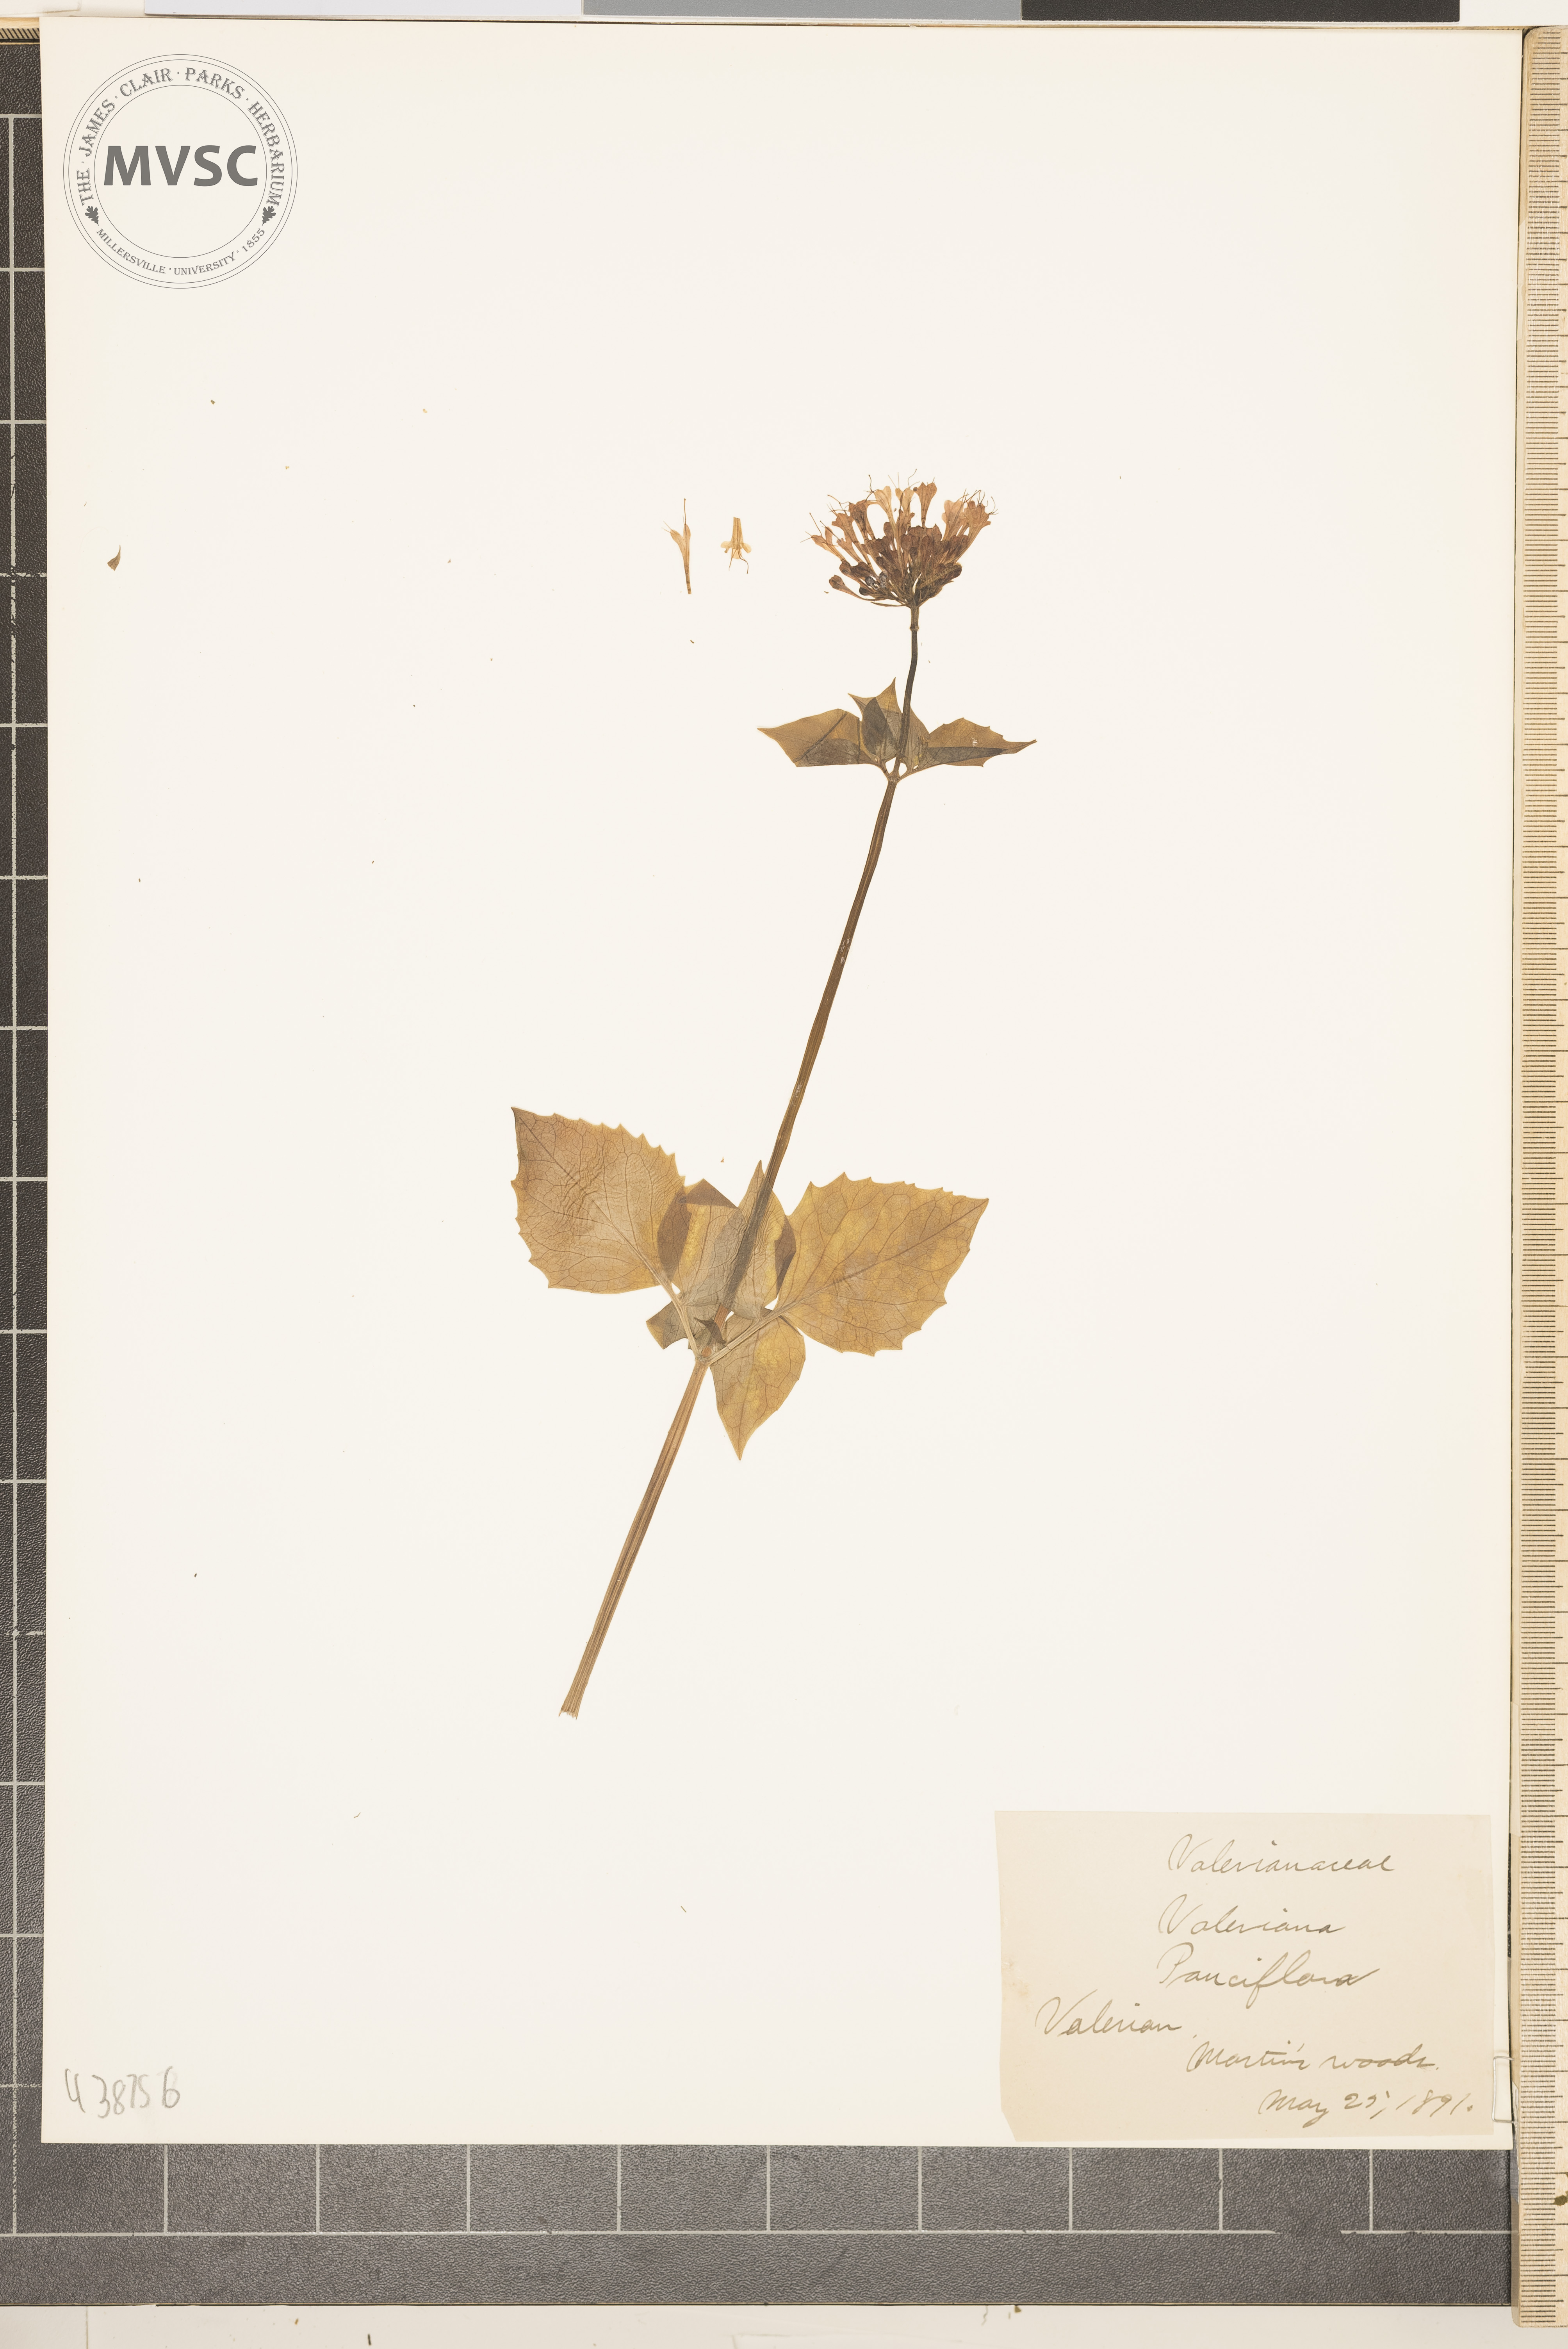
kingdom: Plantae
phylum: Tracheophyta
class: Magnoliopsida
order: Dipsacales
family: Caprifoliaceae
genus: Valeriana
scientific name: Valeriana pauciflora
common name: Valerian
